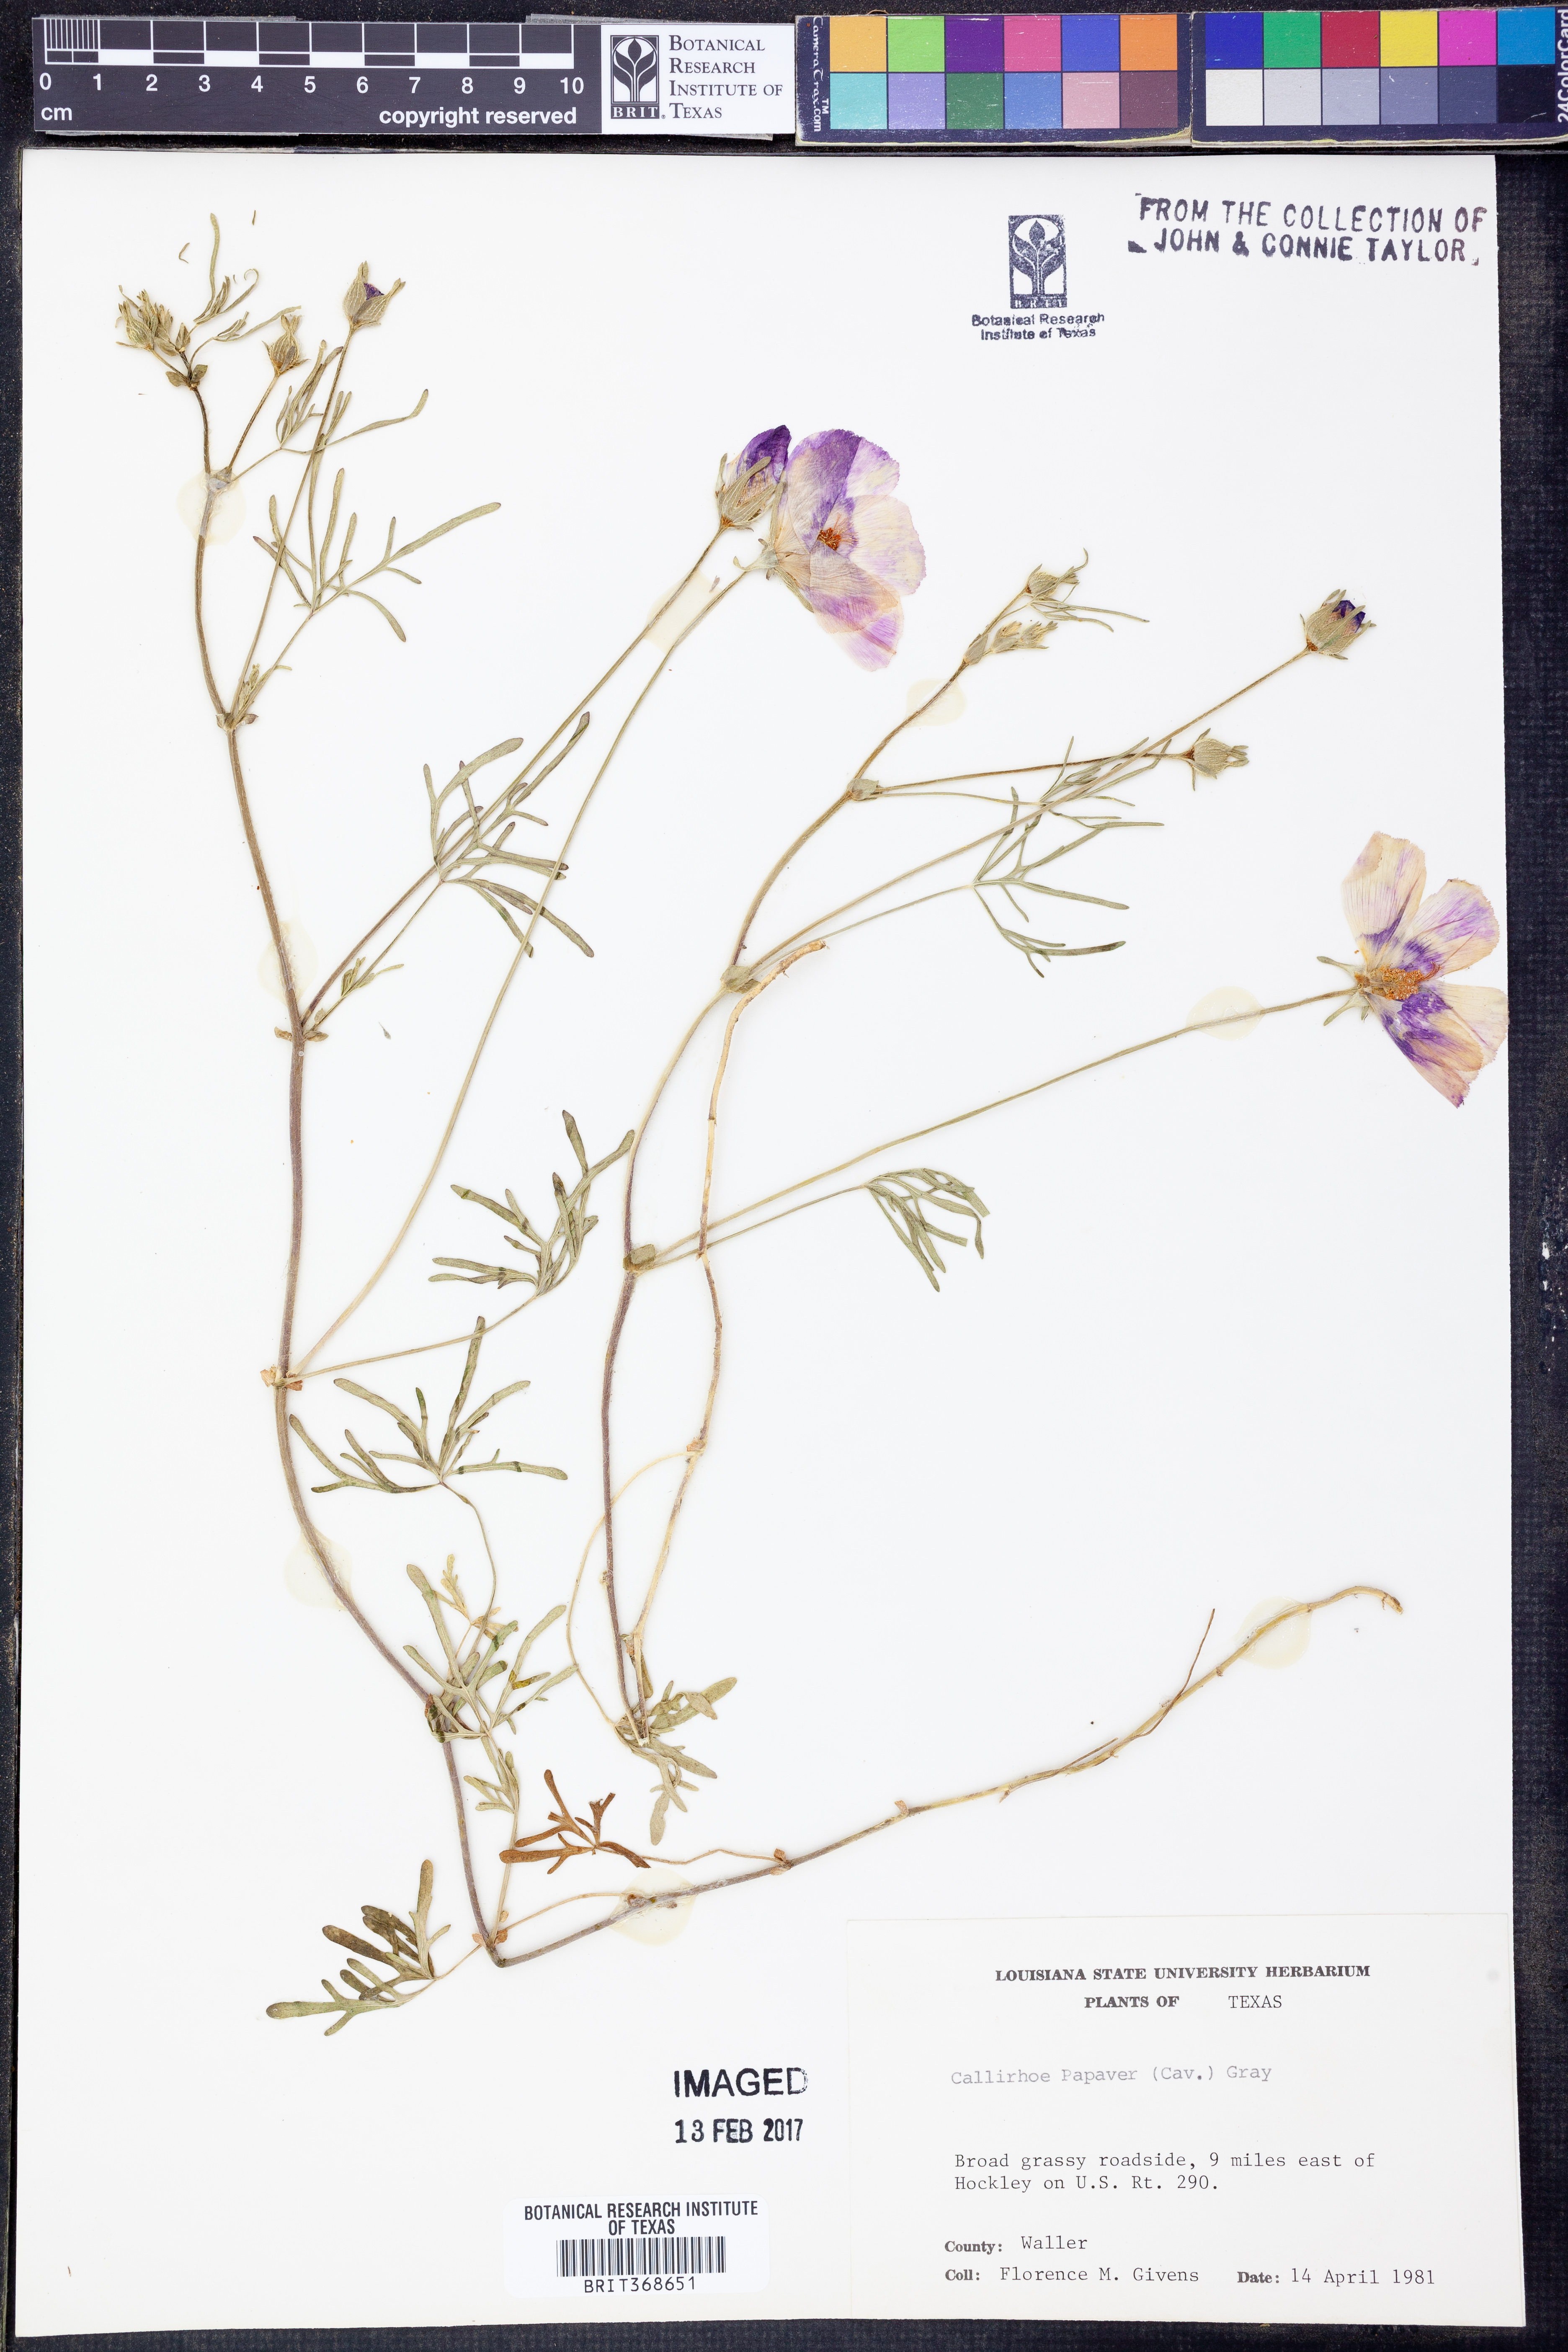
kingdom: Plantae
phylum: Tracheophyta
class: Magnoliopsida
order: Malvales
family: Malvaceae
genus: Callirhoe
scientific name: Callirhoe papaver
